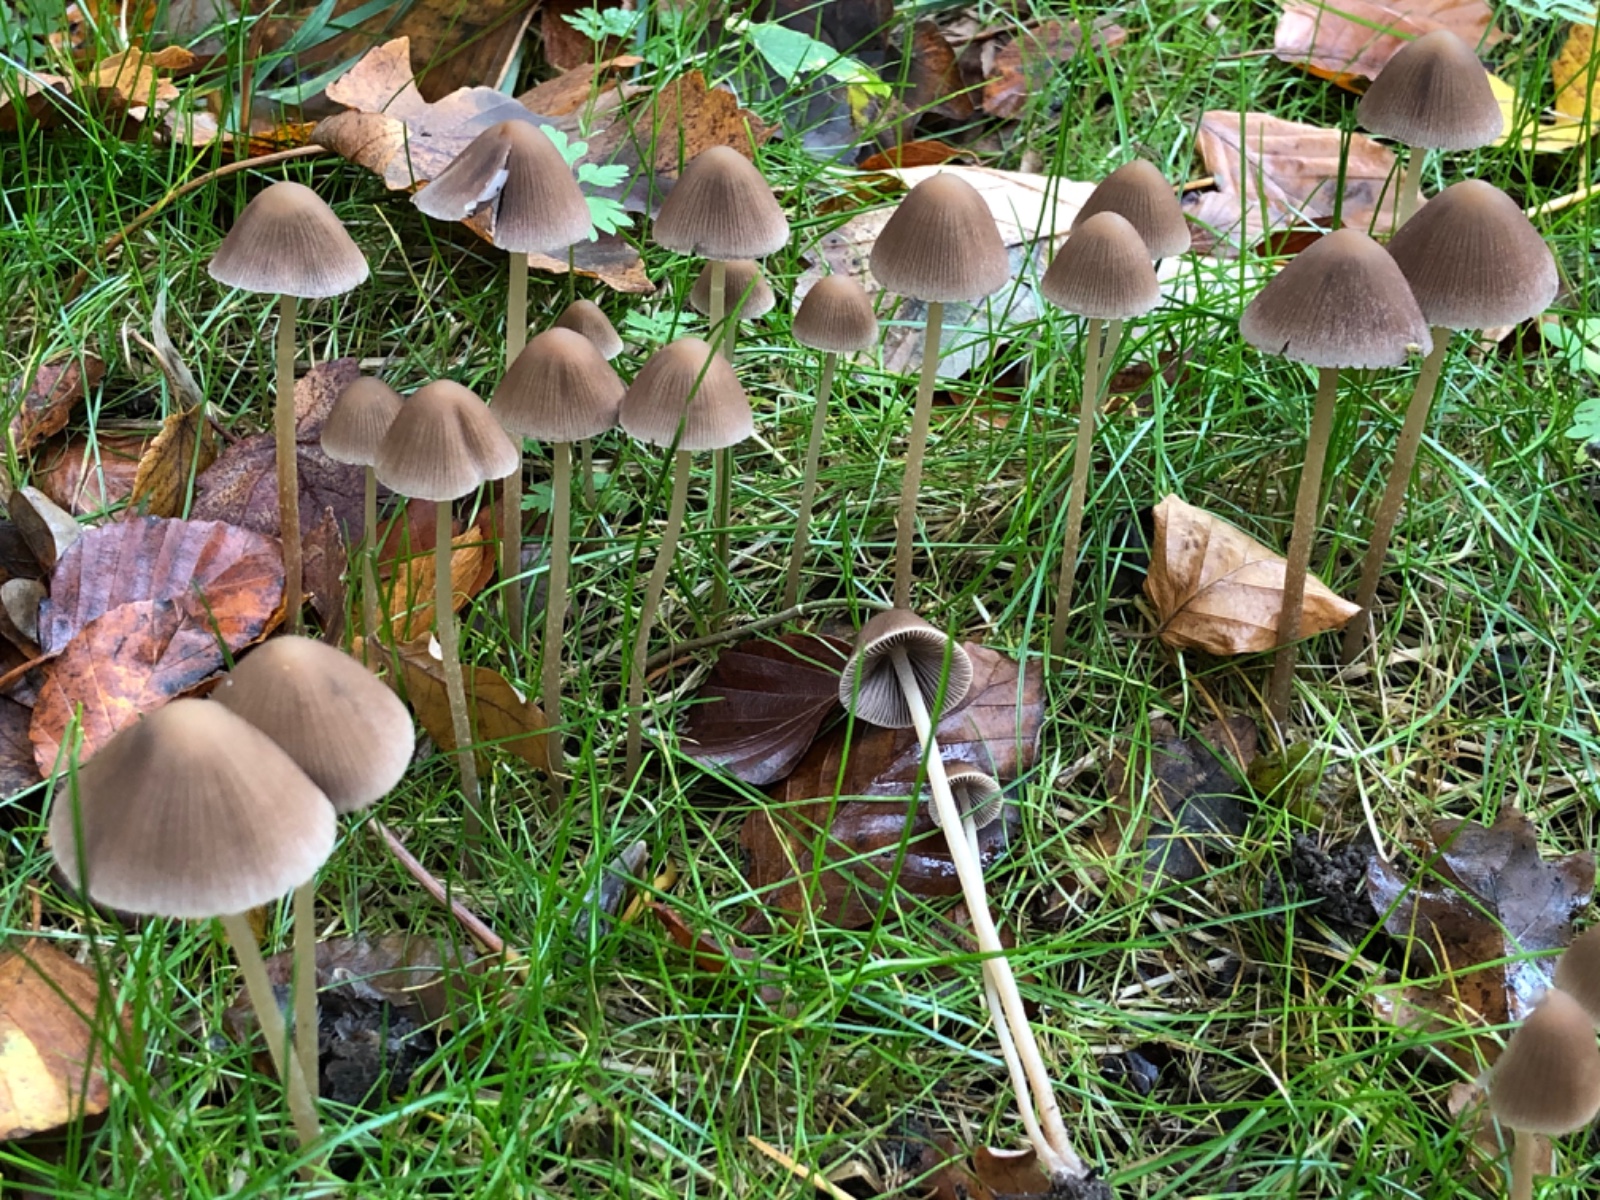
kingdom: Fungi
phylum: Basidiomycota
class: Agaricomycetes
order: Agaricales
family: Psathyrellaceae
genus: Psathyrella
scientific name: Psathyrella
